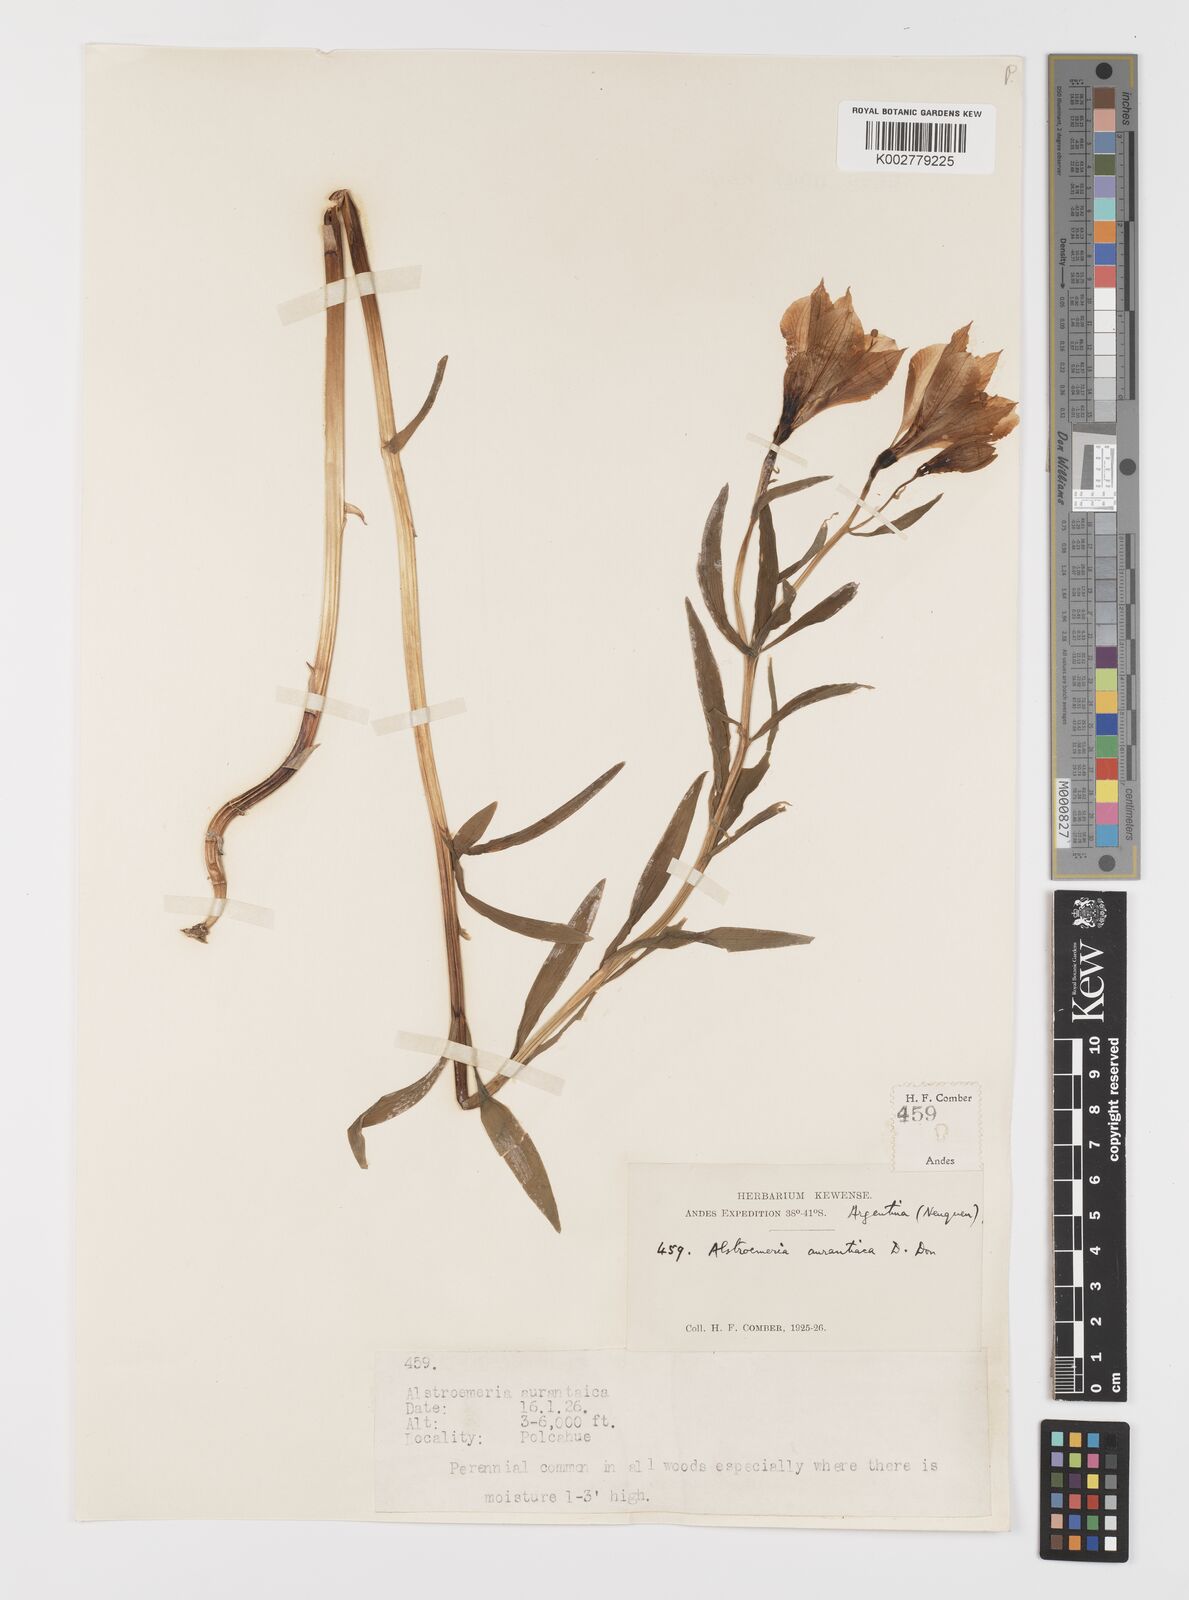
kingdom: Plantae
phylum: Tracheophyta
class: Liliopsida
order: Liliales
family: Alstroemeriaceae
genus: Alstroemeria
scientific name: Alstroemeria aurea
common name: Peruvian lily
